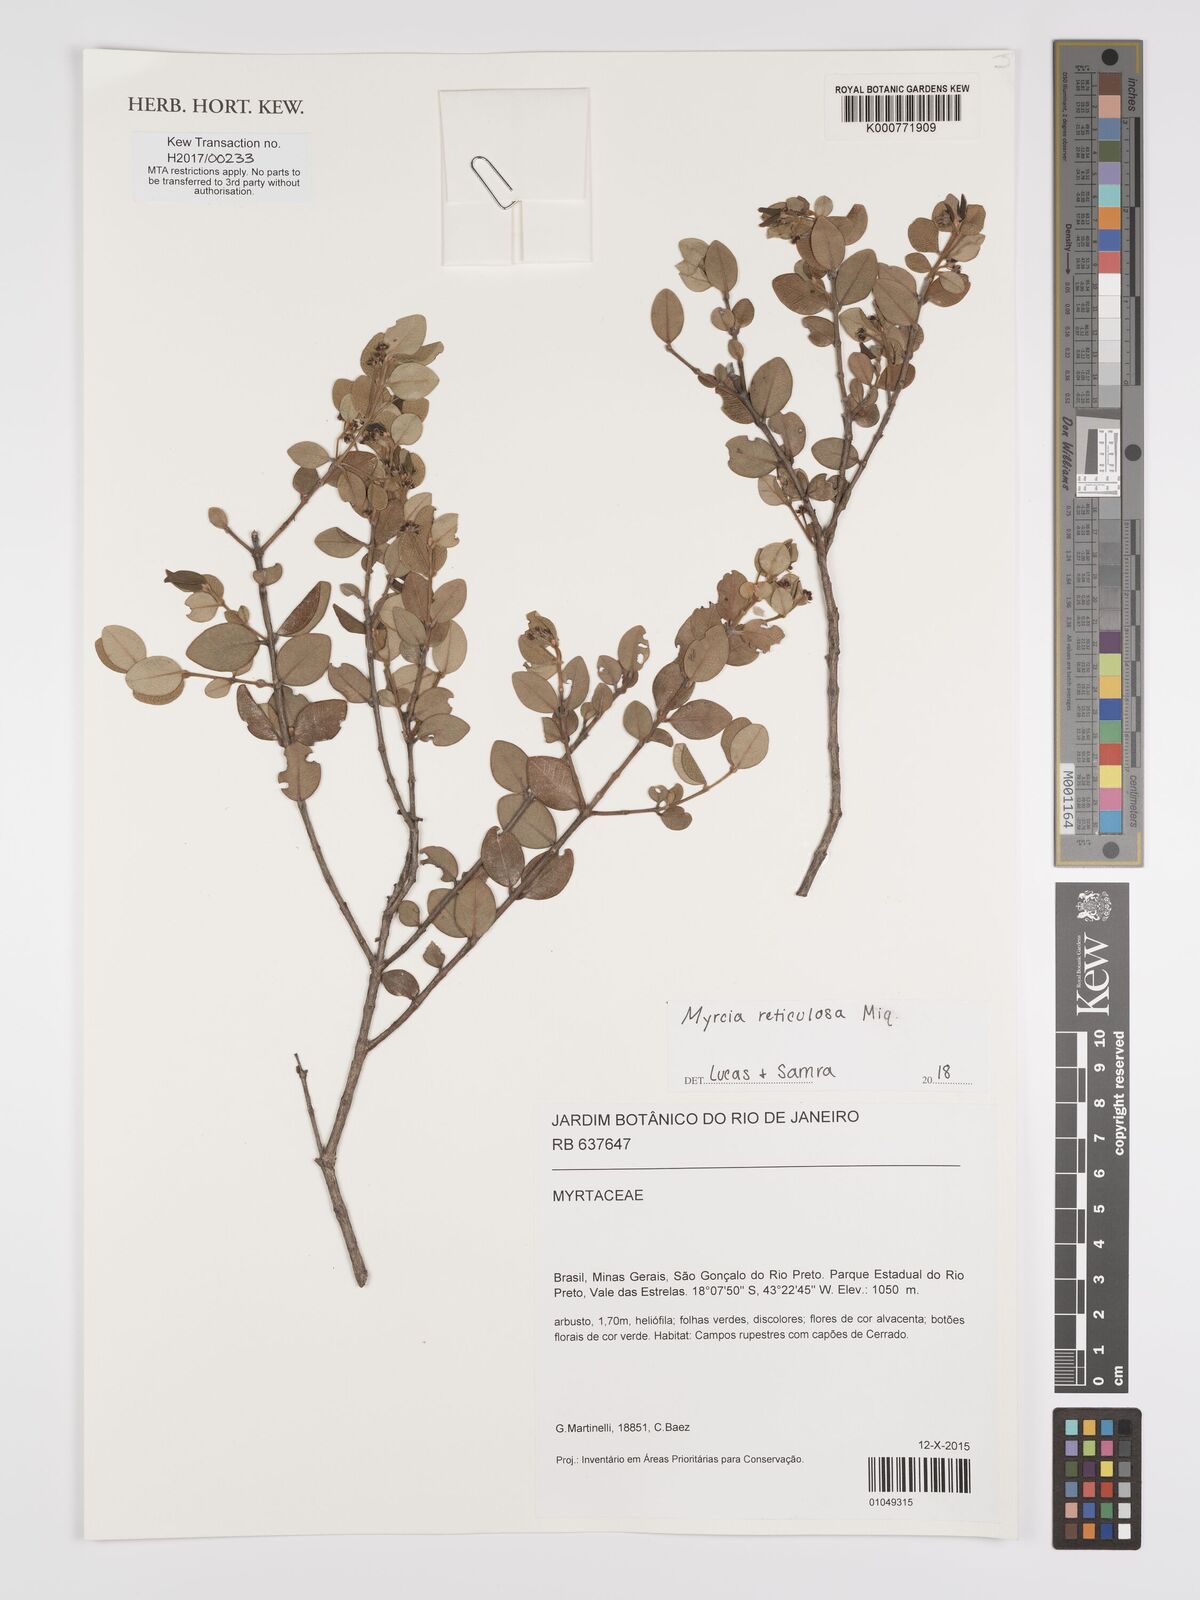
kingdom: Plantae
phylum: Tracheophyta
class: Magnoliopsida
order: Myrtales
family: Myrtaceae
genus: Myrcia
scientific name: Myrcia reticulosa
